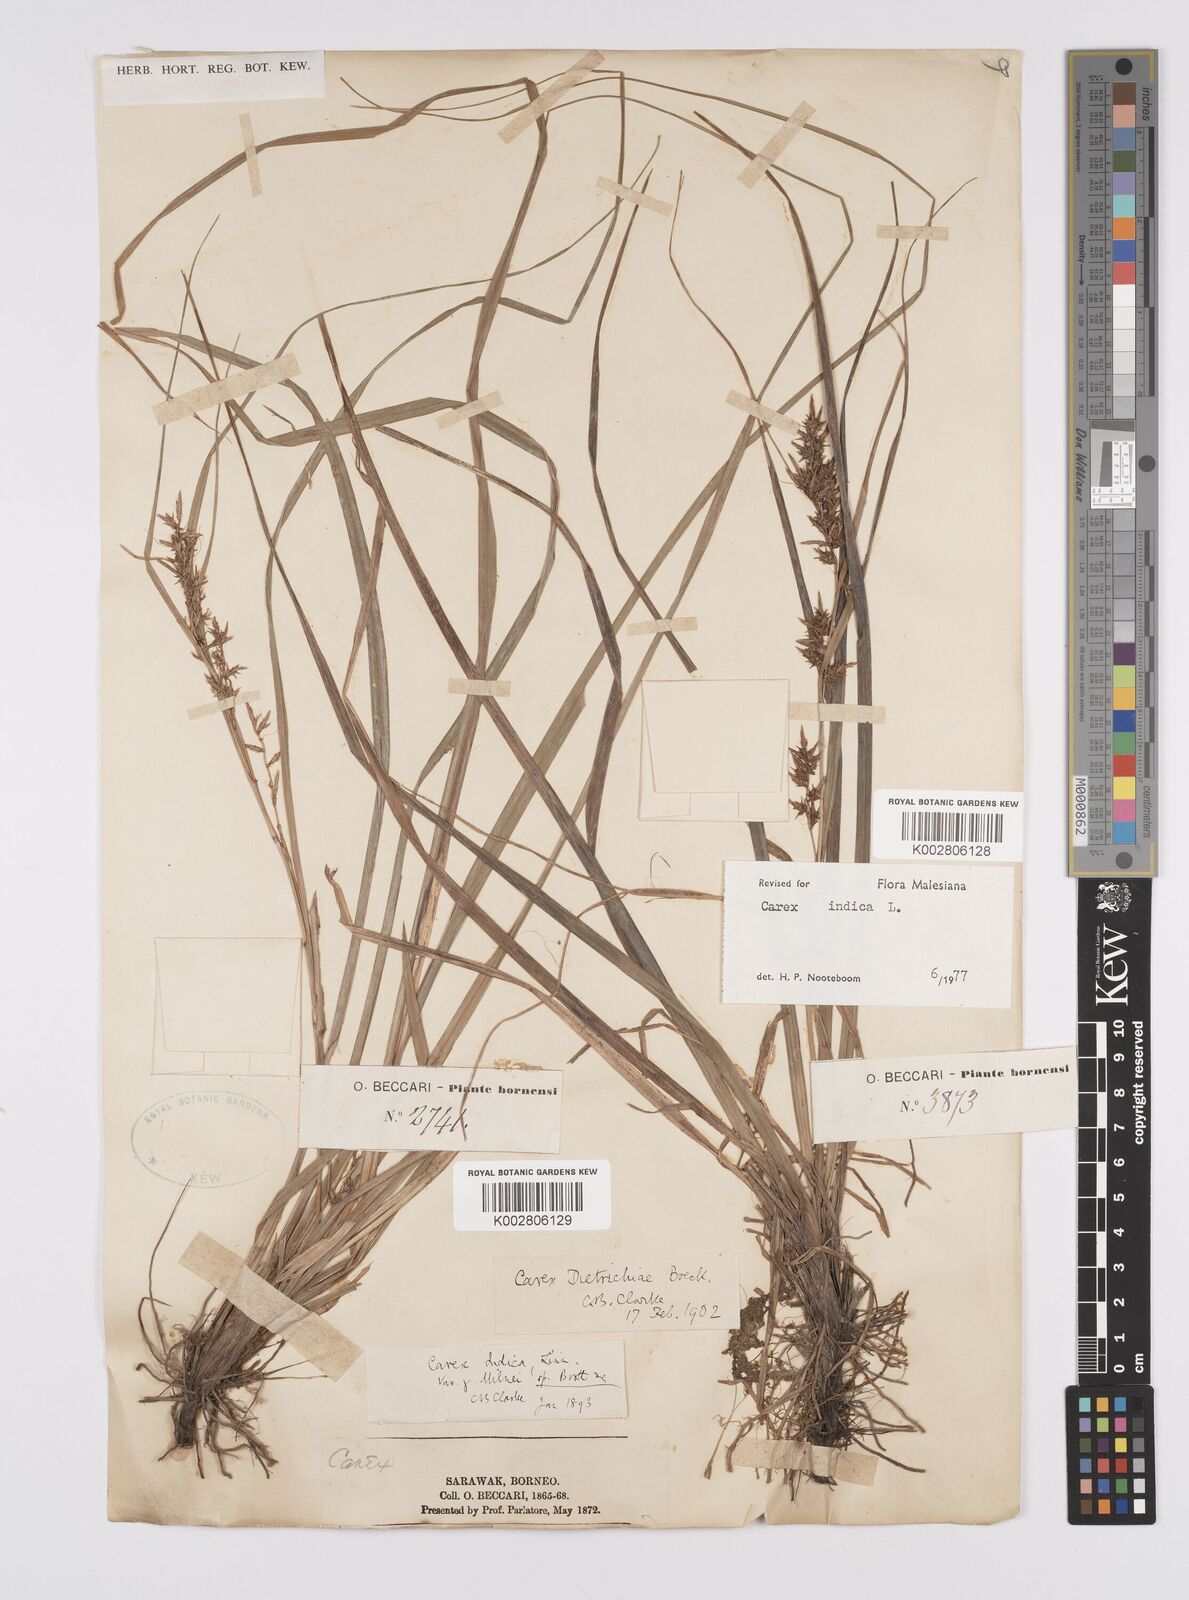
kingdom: Plantae
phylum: Tracheophyta
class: Liliopsida
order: Poales
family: Cyperaceae
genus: Carex
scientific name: Carex indica
